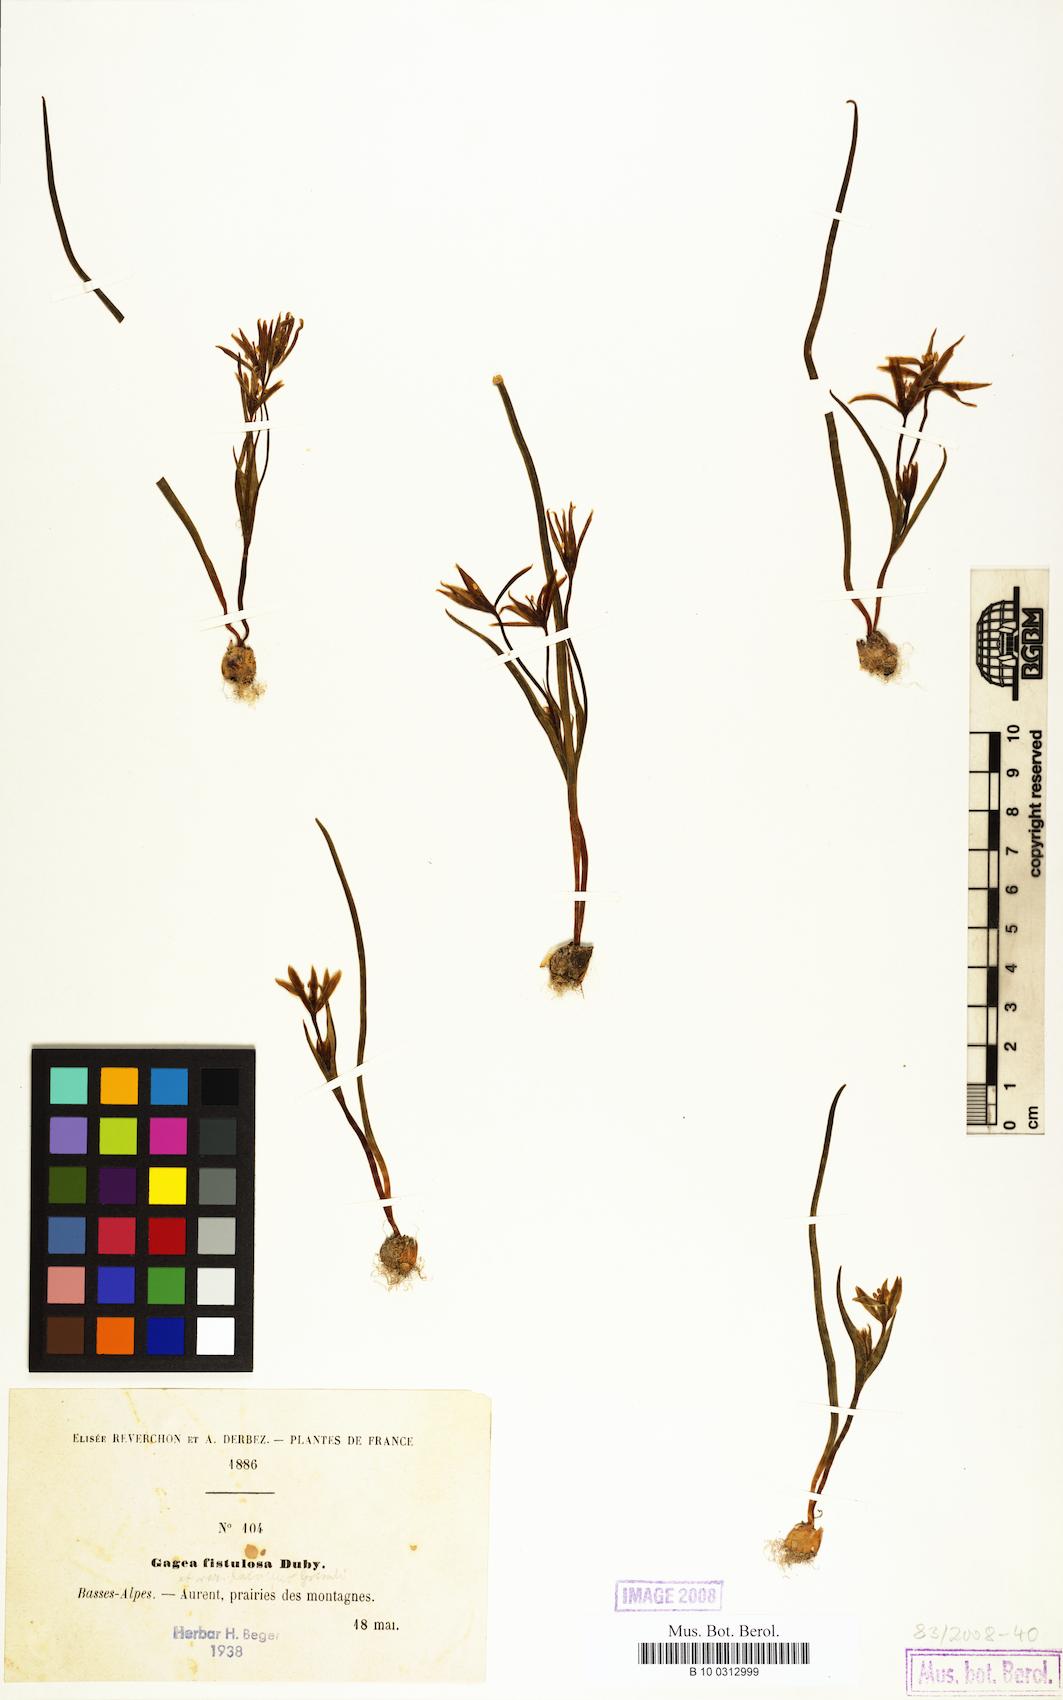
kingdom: Plantae
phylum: Tracheophyta
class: Liliopsida
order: Liliales
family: Liliaceae
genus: Gagea
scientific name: Gagea
